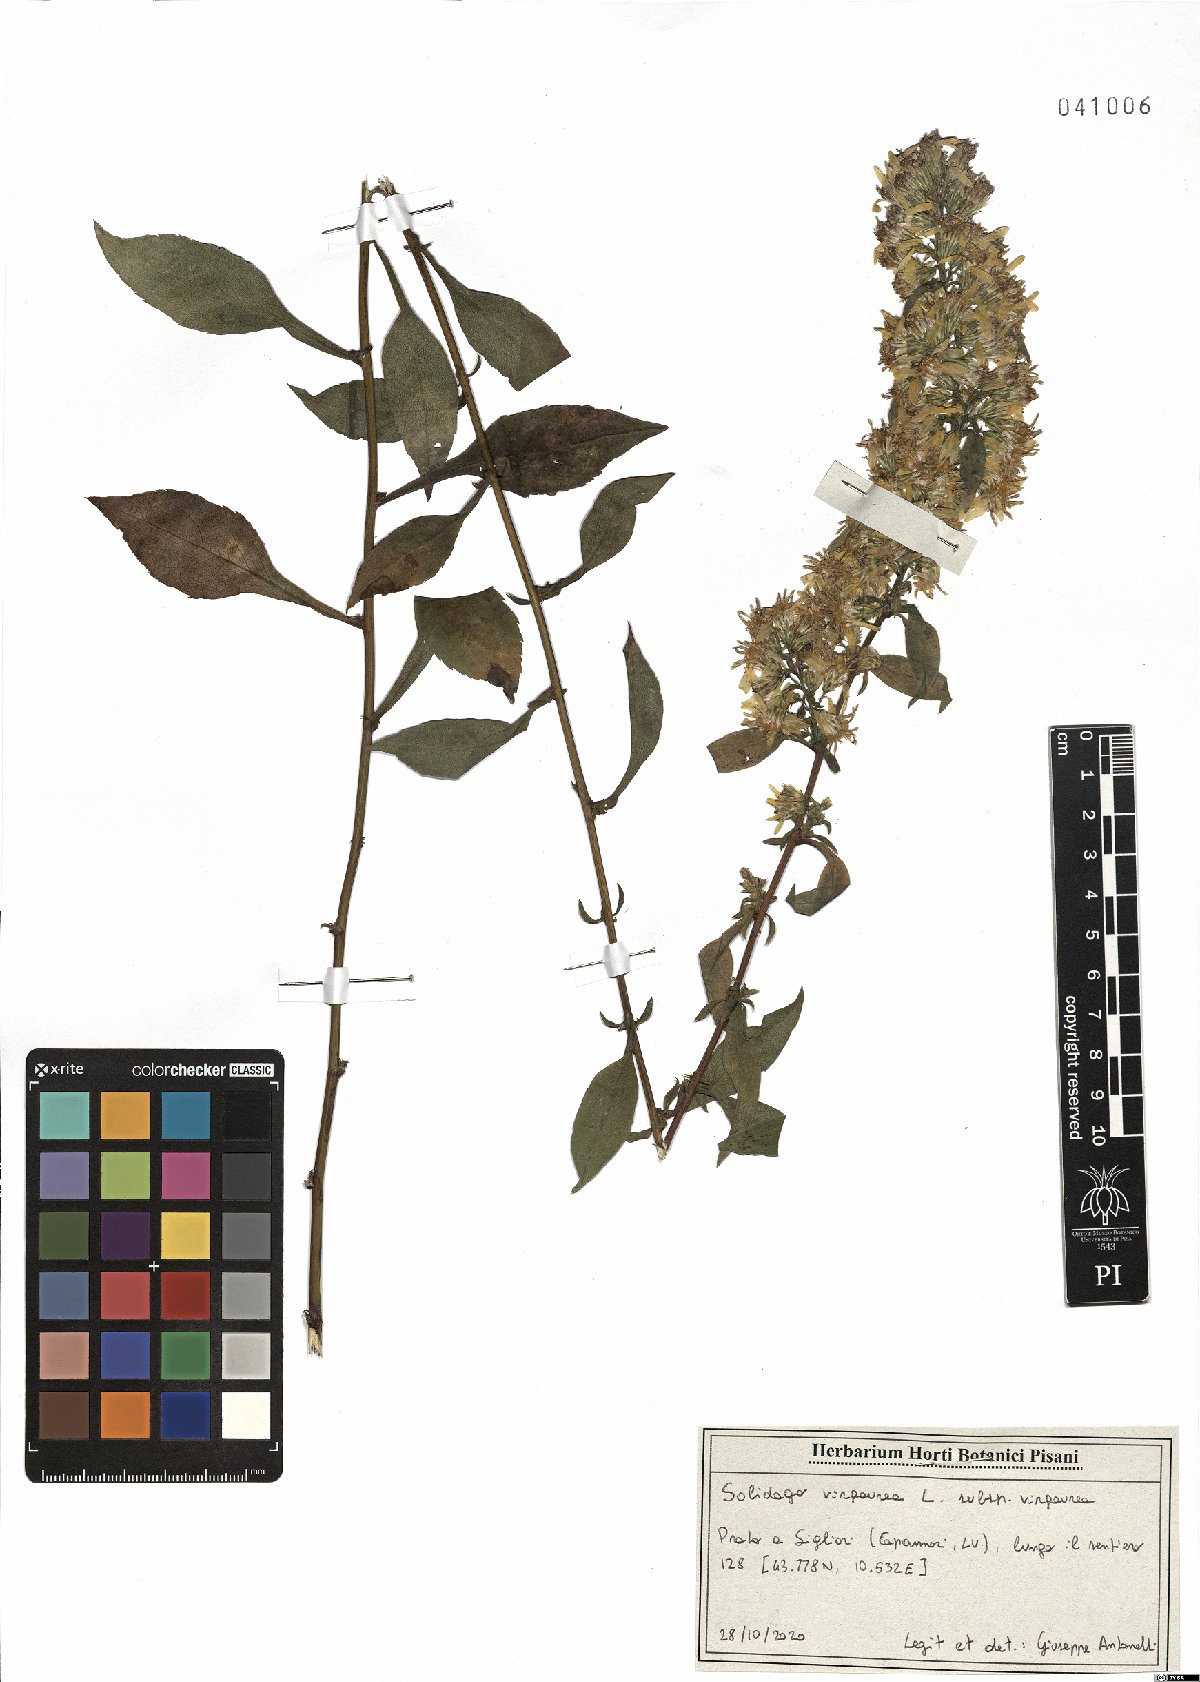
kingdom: Plantae
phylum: Tracheophyta
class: Magnoliopsida
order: Asterales
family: Asteraceae
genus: Solidago
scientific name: Solidago virgaurea
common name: Goldenrod
